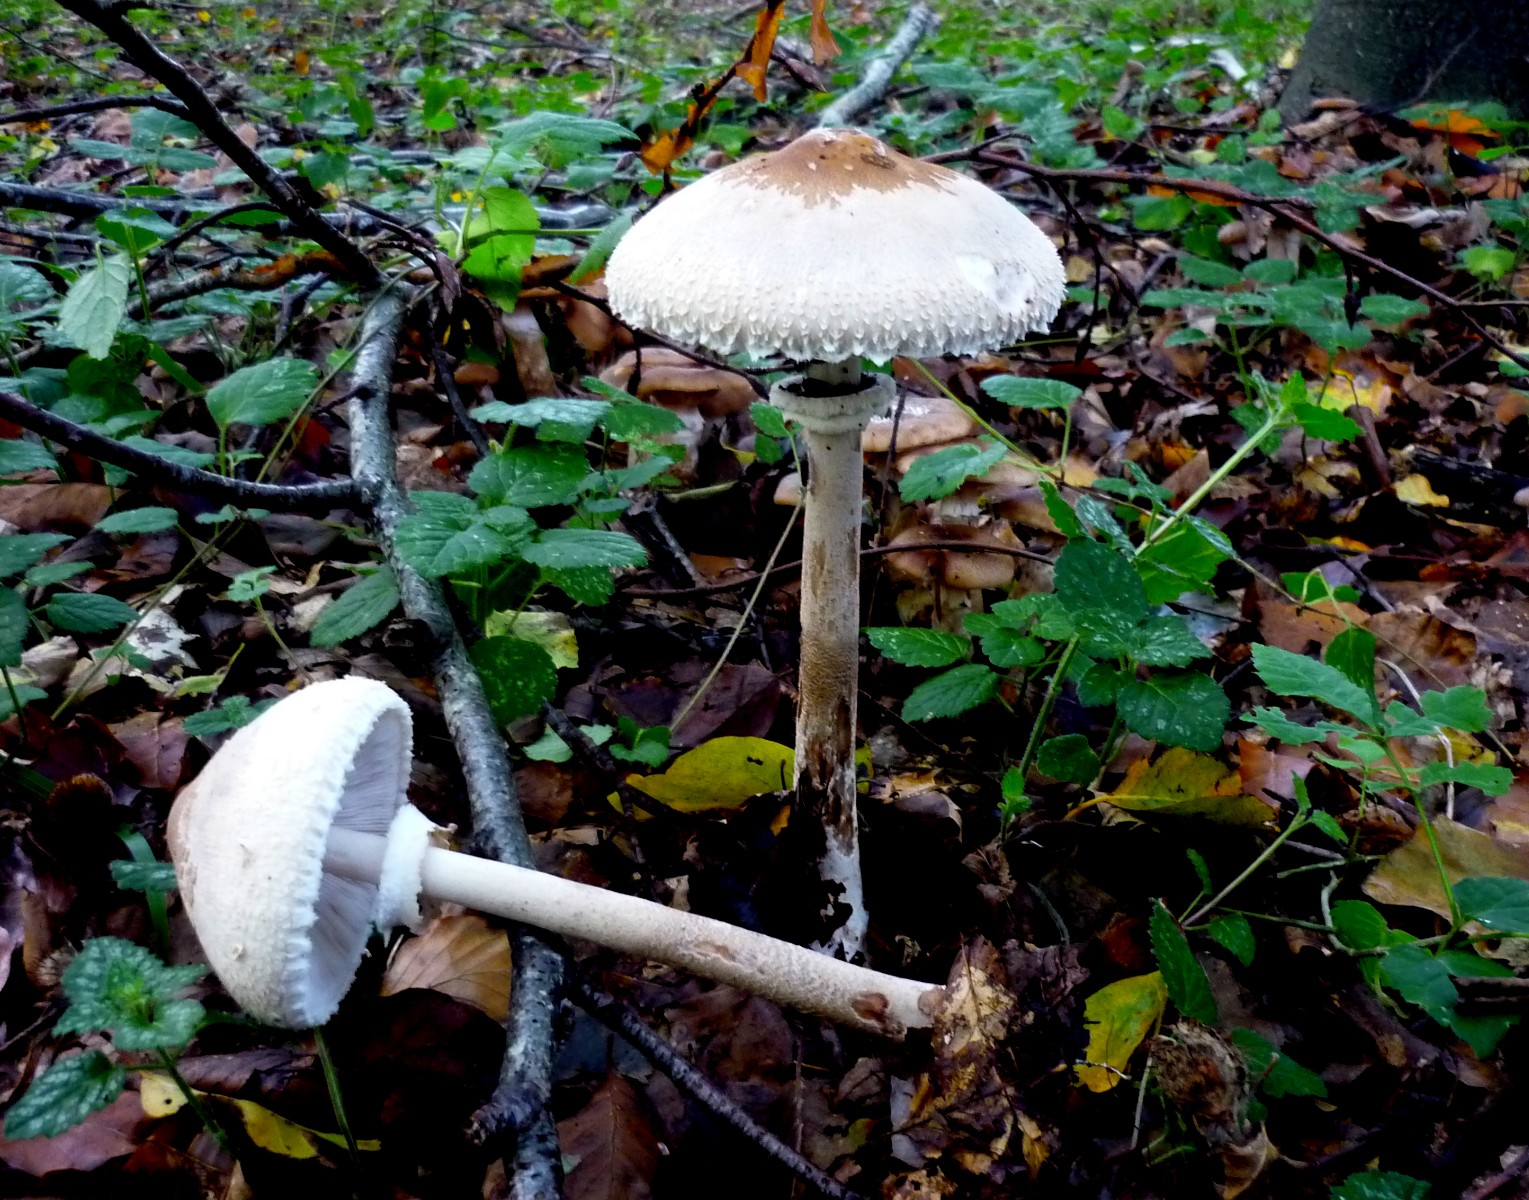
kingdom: Fungi
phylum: Basidiomycota
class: Agaricomycetes
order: Agaricales
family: Agaricaceae
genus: Macrolepiota
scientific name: Macrolepiota mastoidea
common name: puklet kæmpeparasolhat
